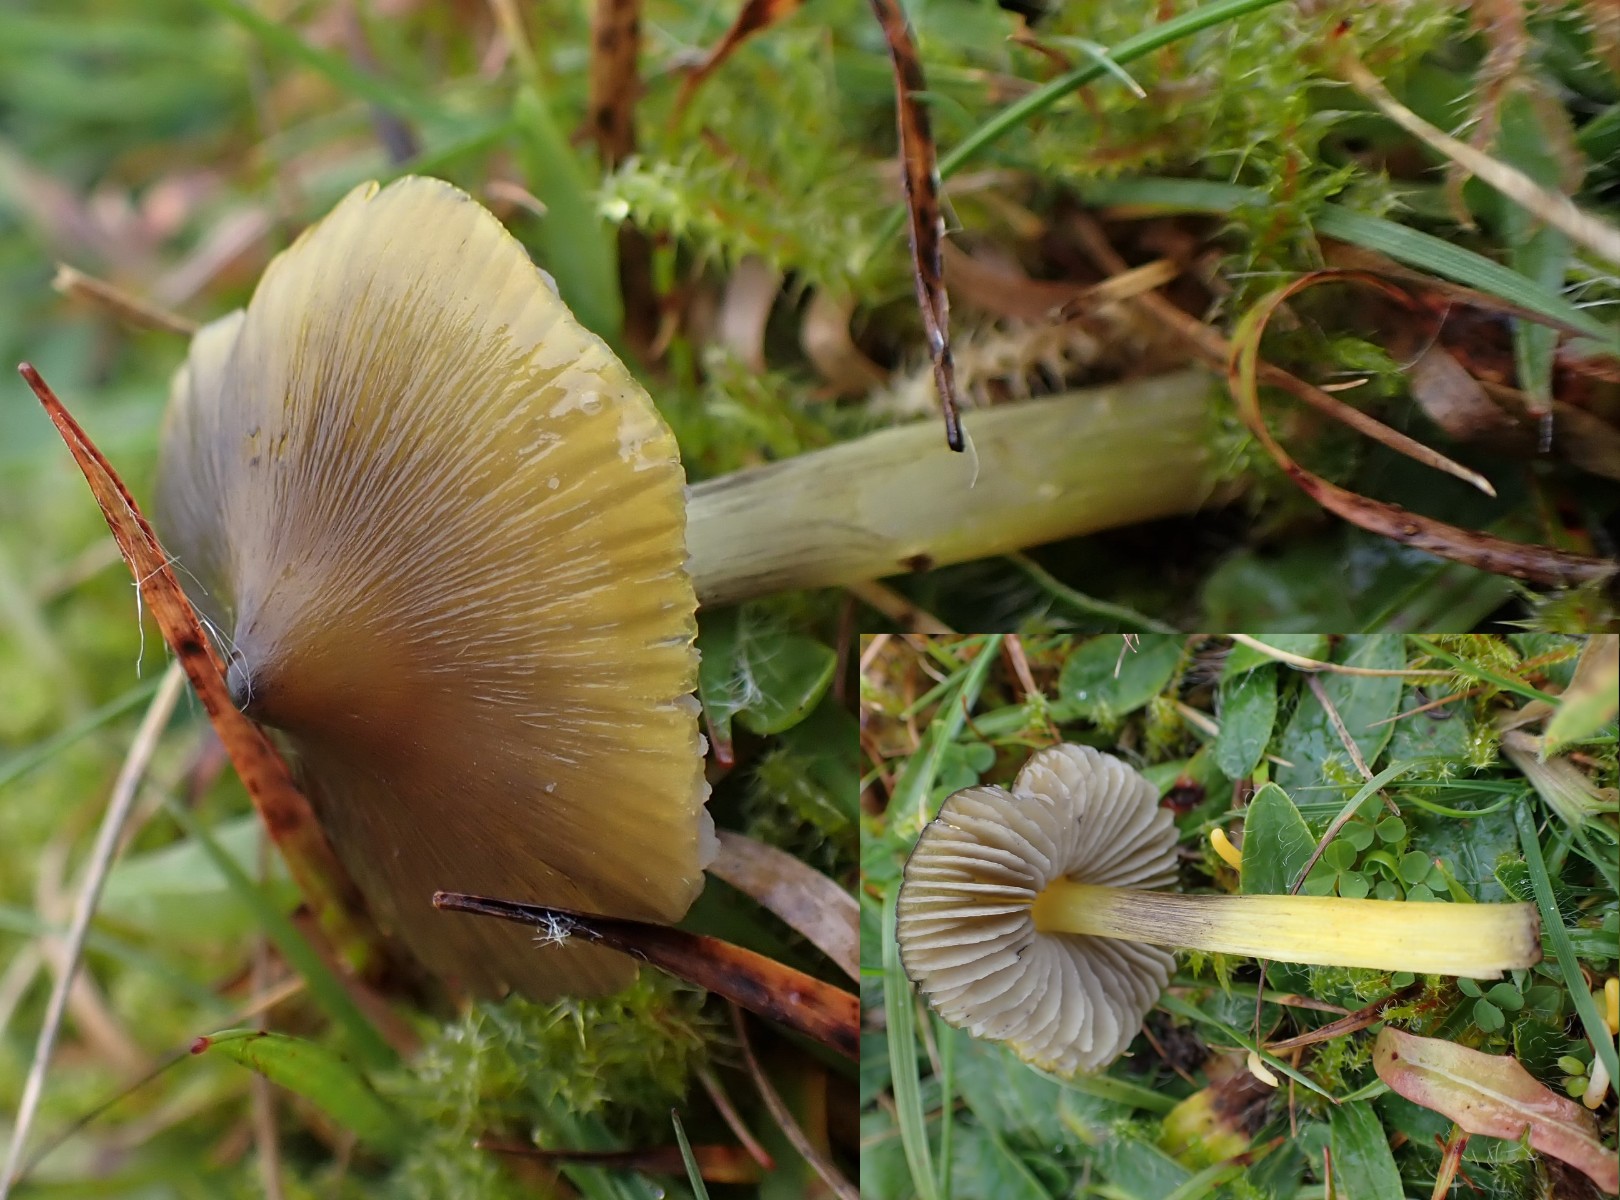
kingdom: Fungi
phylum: Basidiomycota
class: Agaricomycetes
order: Agaricales
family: Hygrophoraceae
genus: Hygrocybe
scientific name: Hygrocybe conica
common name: kegle-vokshat
